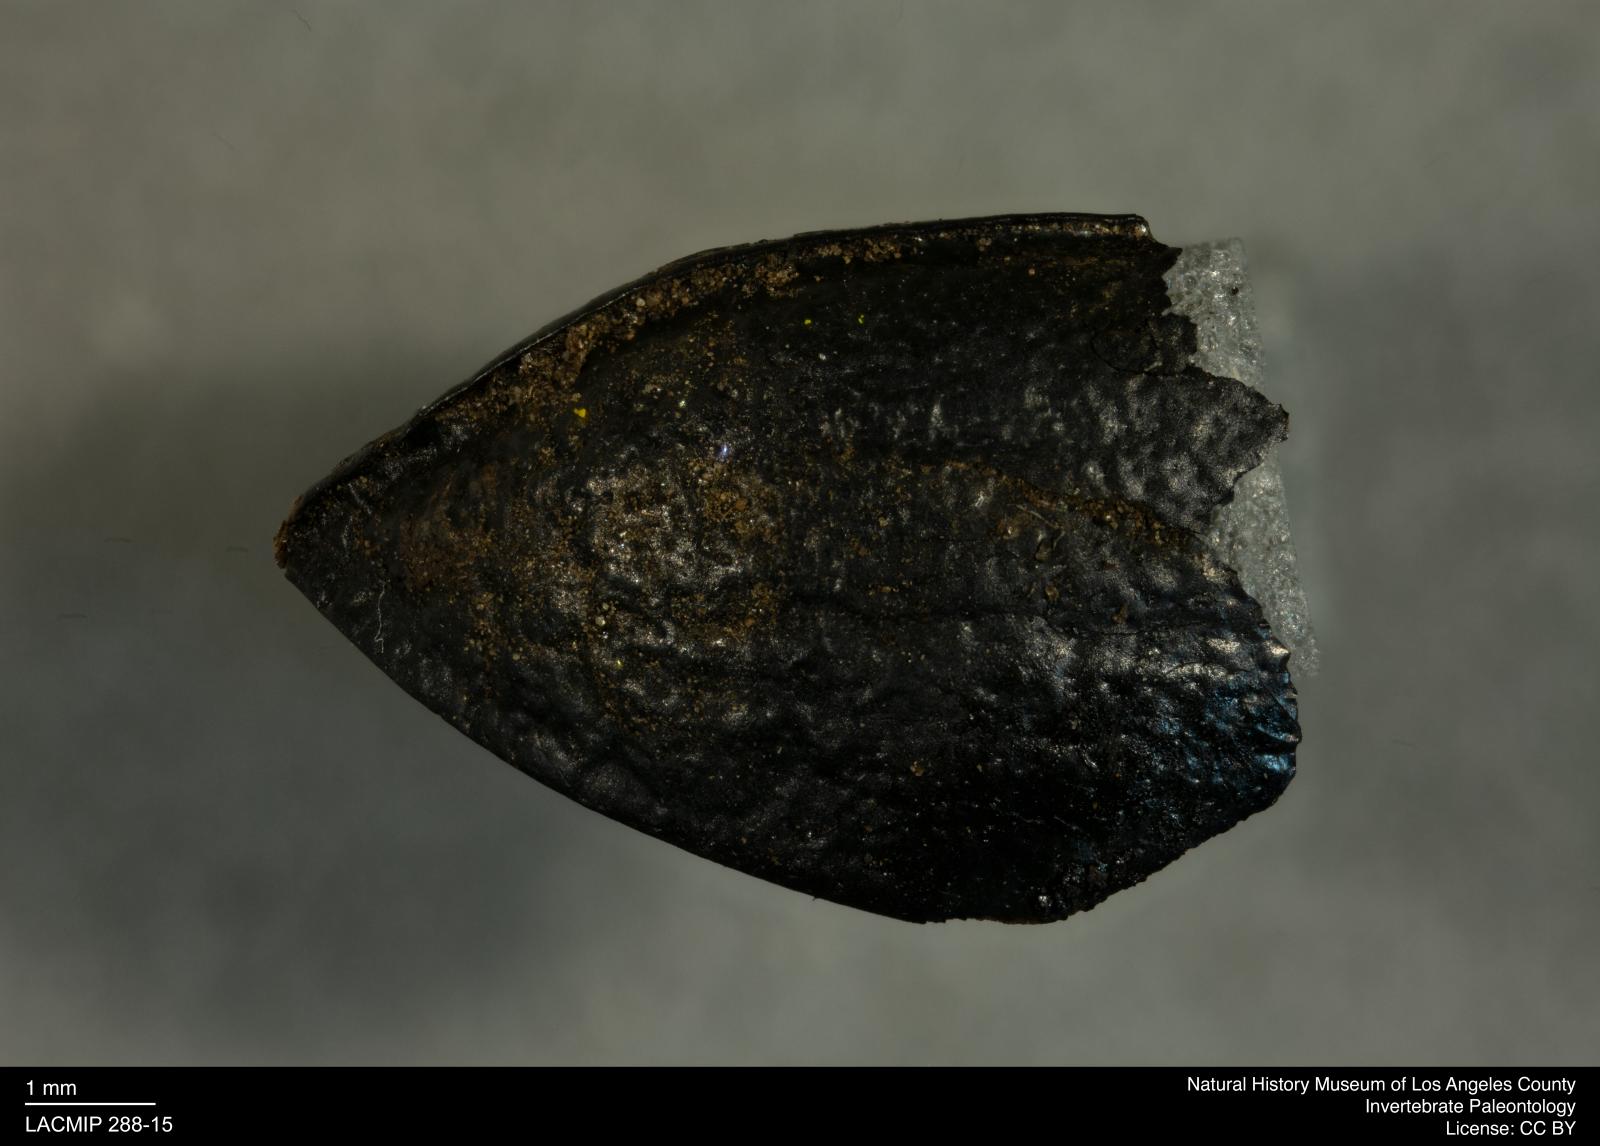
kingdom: Animalia
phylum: Arthropoda
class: Insecta
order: Coleoptera
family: Tenebrionidae
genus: Coniontis
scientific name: Coniontis abdominalis
